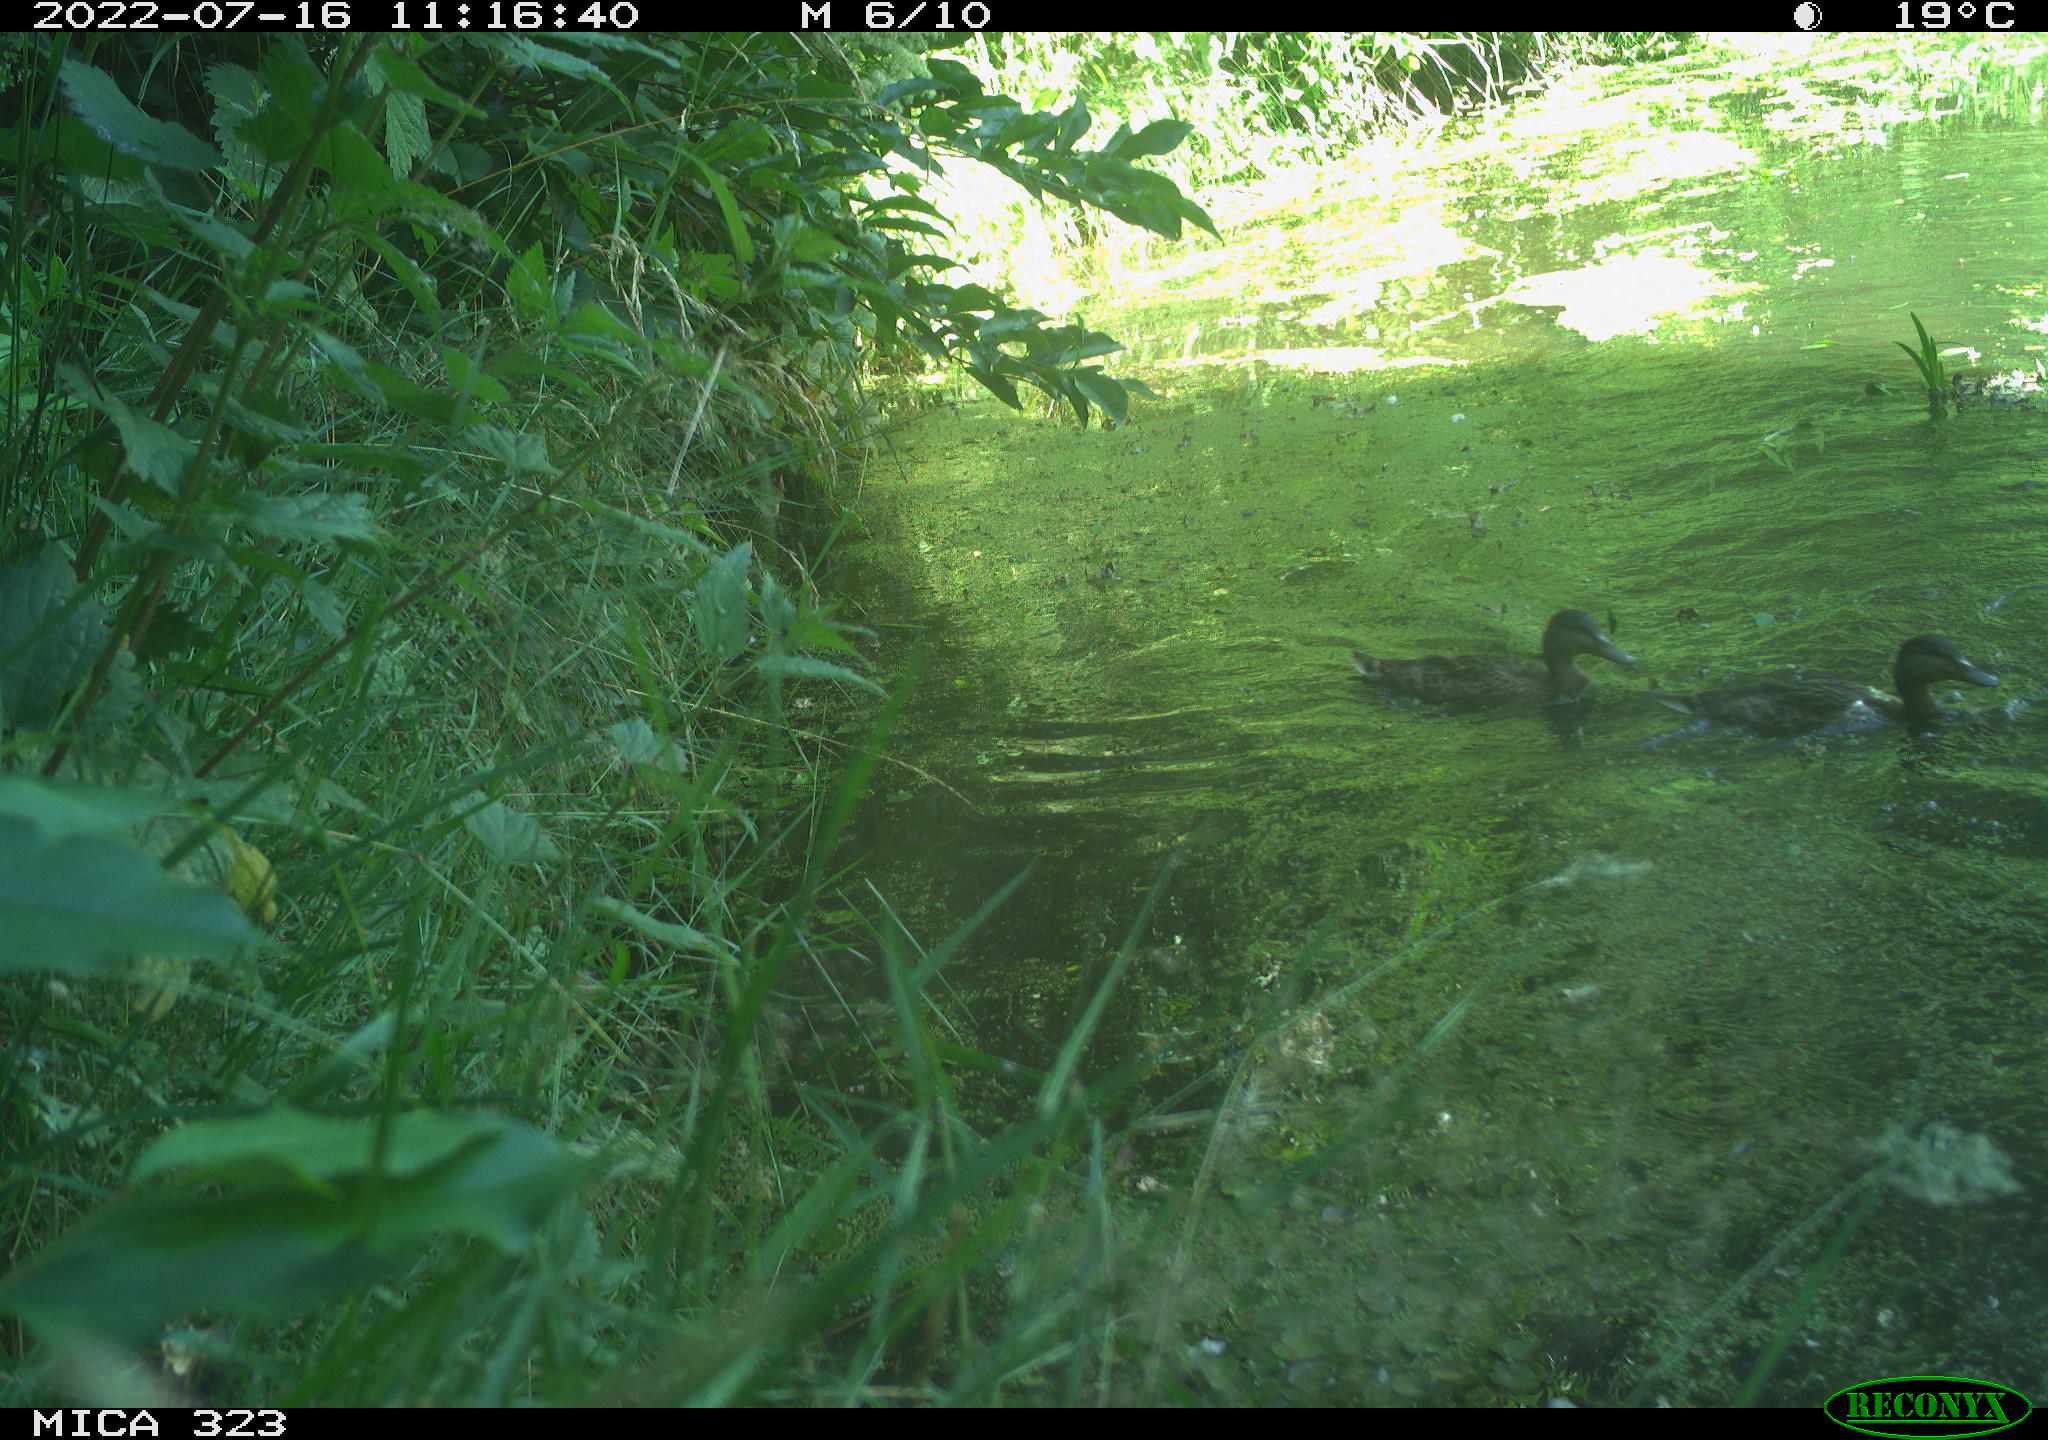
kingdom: Animalia
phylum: Chordata
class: Aves
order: Anseriformes
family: Anatidae
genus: Anas
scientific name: Anas platyrhynchos
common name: Mallard
